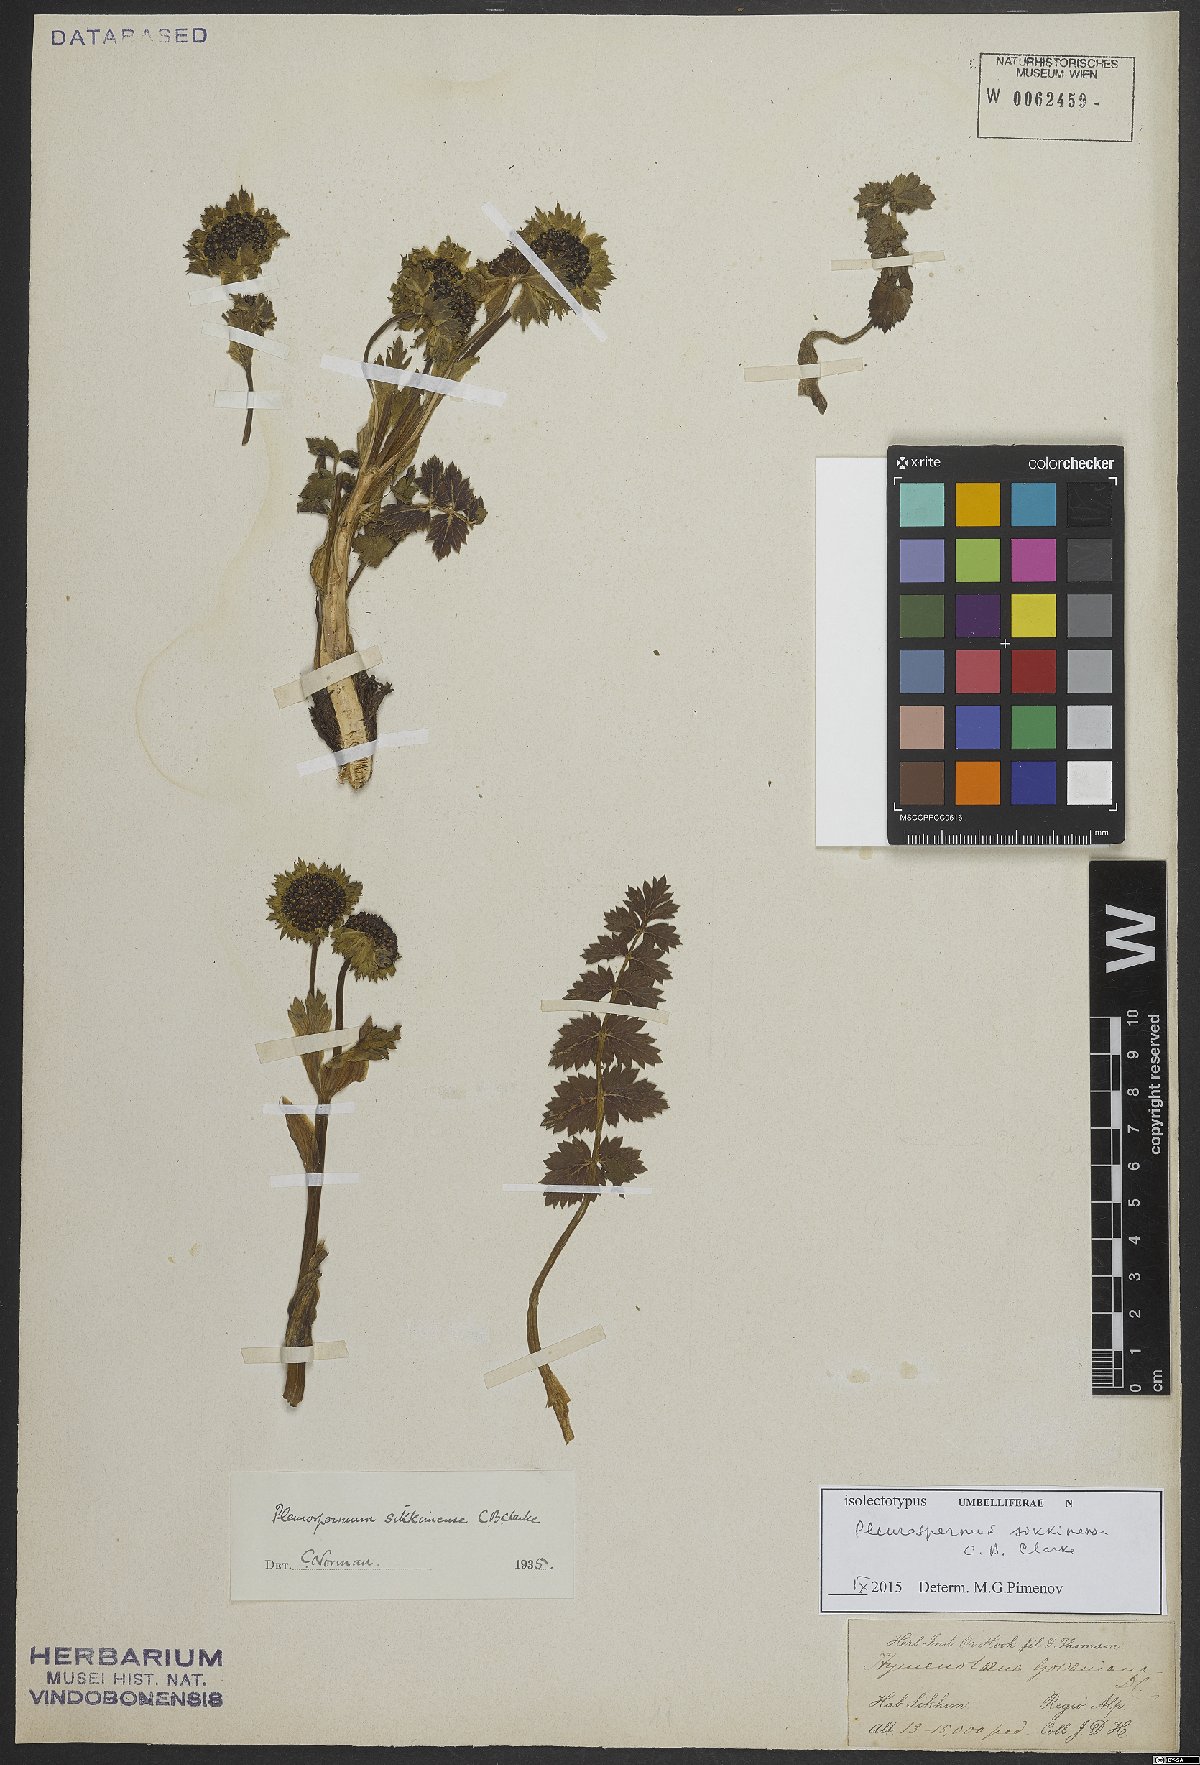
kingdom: Plantae
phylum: Tracheophyta
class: Magnoliopsida
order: Apiales
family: Apiaceae
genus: Pleurospermopsis
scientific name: Pleurospermopsis sikkimensis
